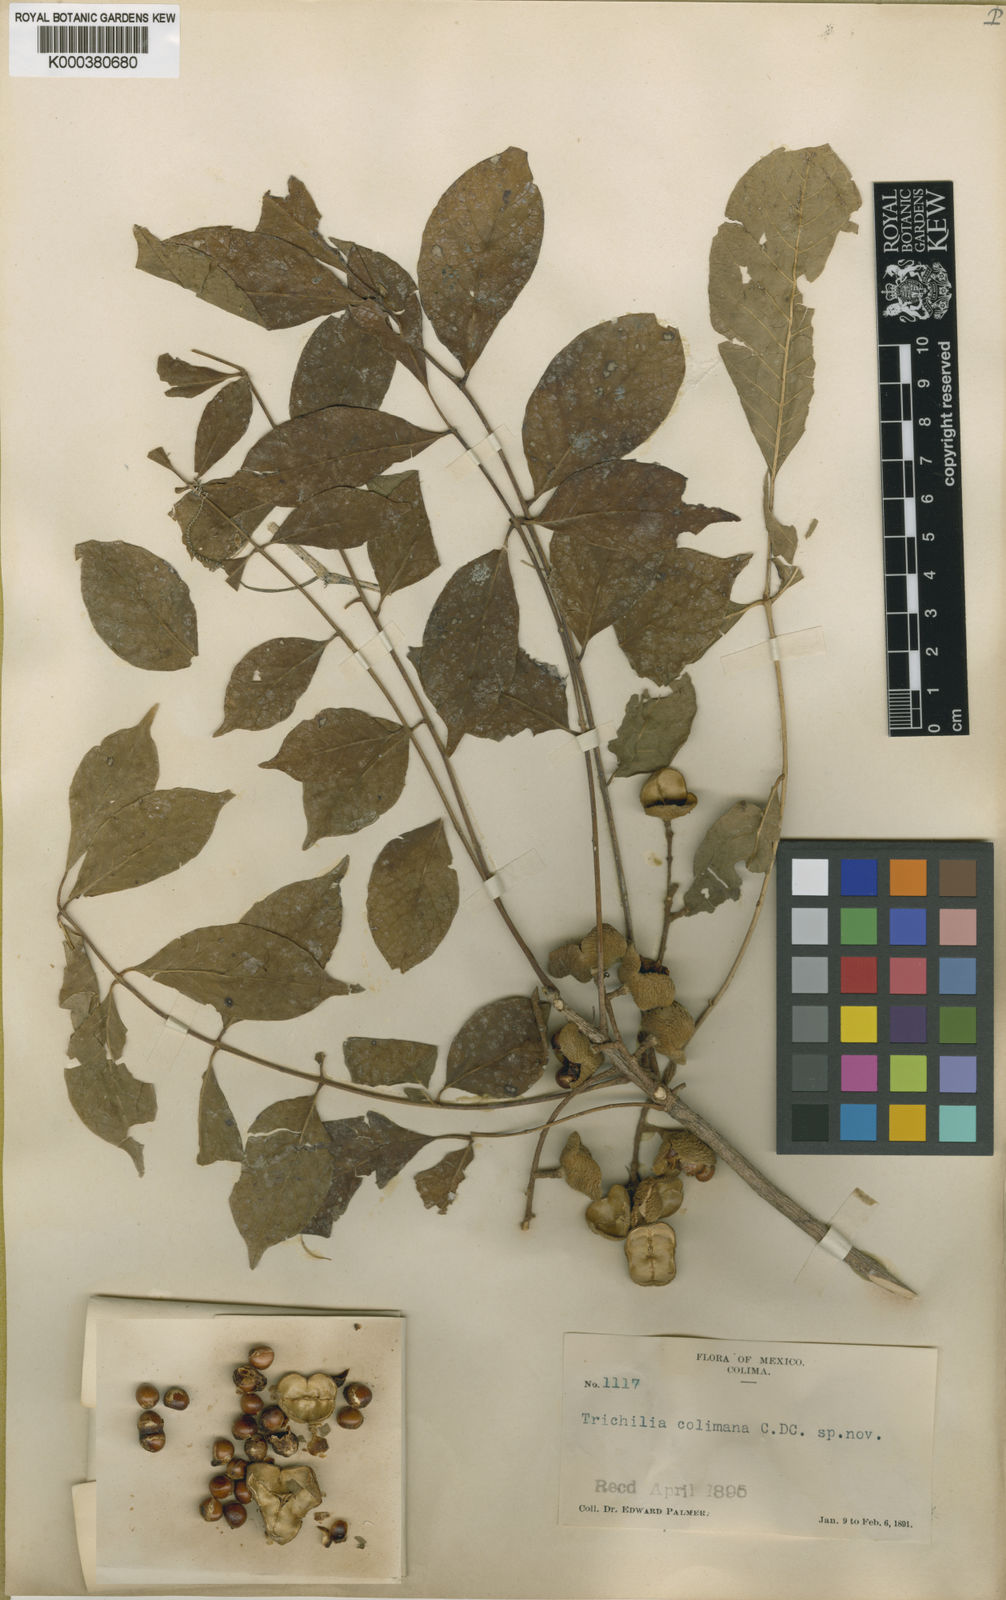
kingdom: Plantae
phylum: Tracheophyta
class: Magnoliopsida
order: Sapindales
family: Meliaceae
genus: Trichilia
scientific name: Trichilia
